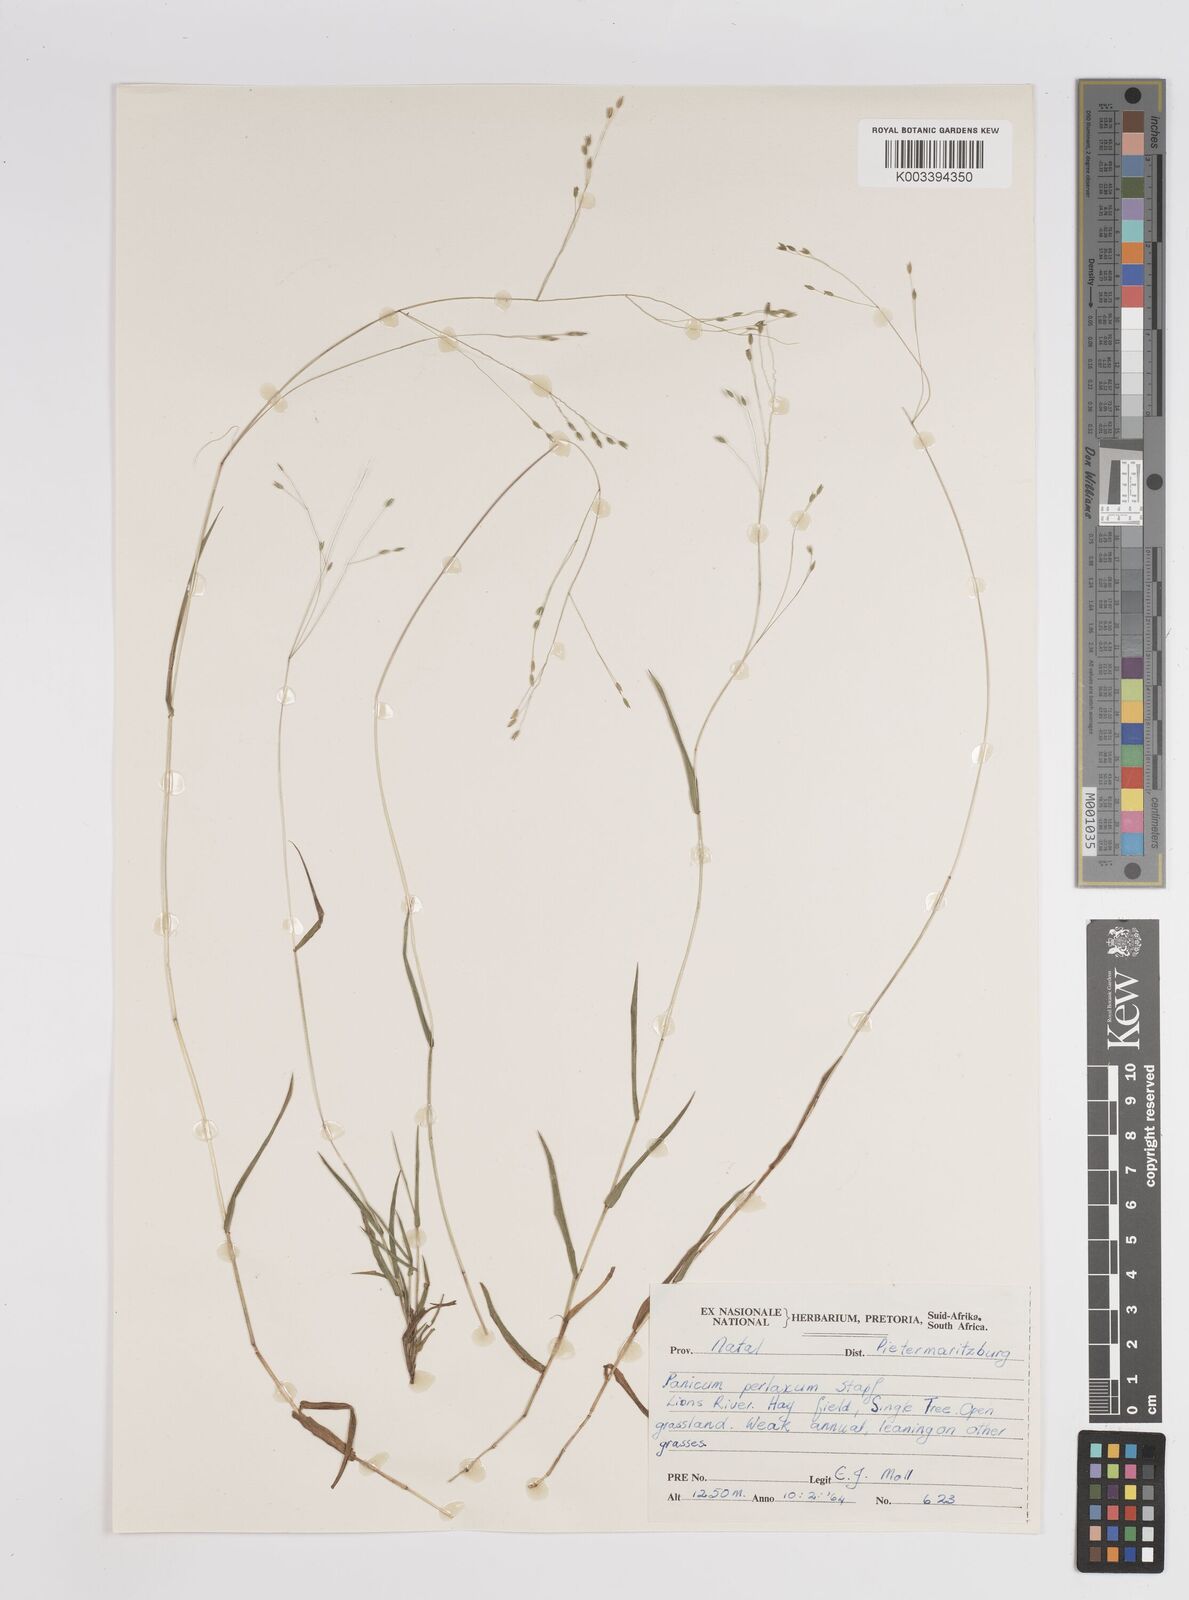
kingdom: Plantae
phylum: Tracheophyta
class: Liliopsida
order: Poales
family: Poaceae
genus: Panicum
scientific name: Panicum aequinerve
